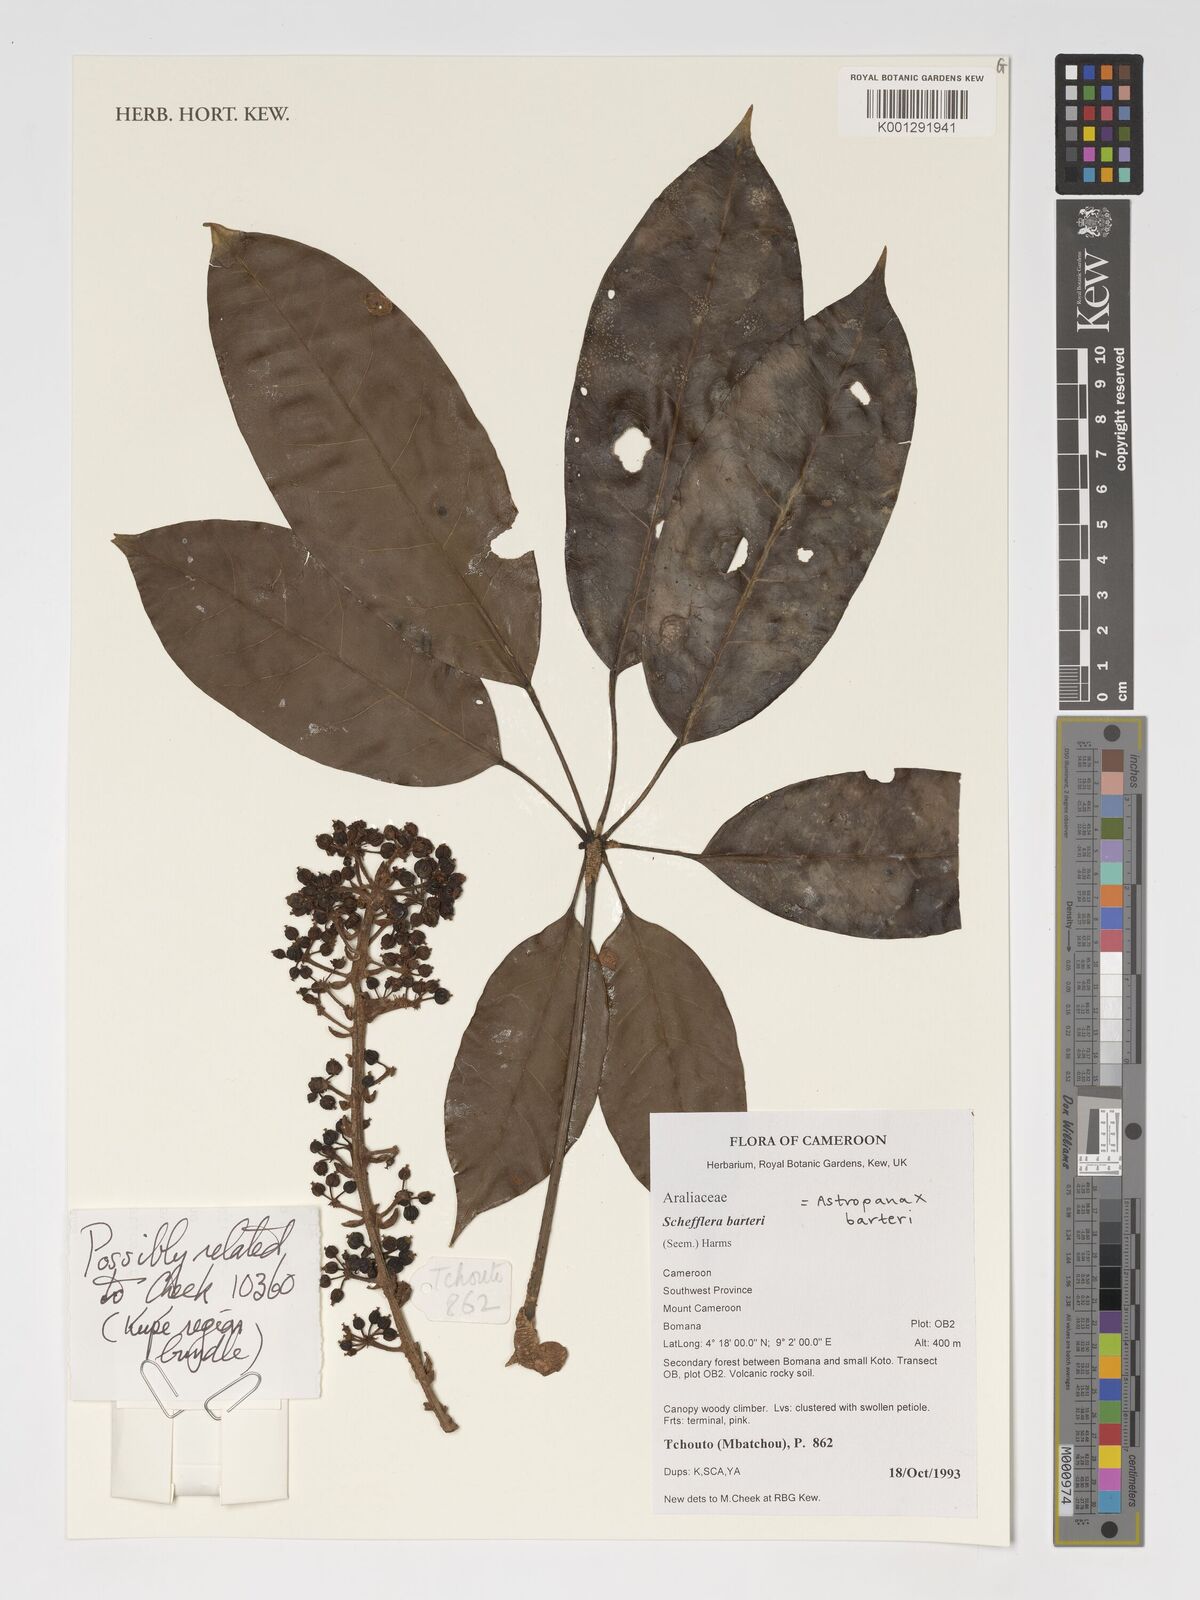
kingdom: Plantae
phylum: Tracheophyta
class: Magnoliopsida
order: Apiales
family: Araliaceae
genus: Astropanax
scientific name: Astropanax barteri
